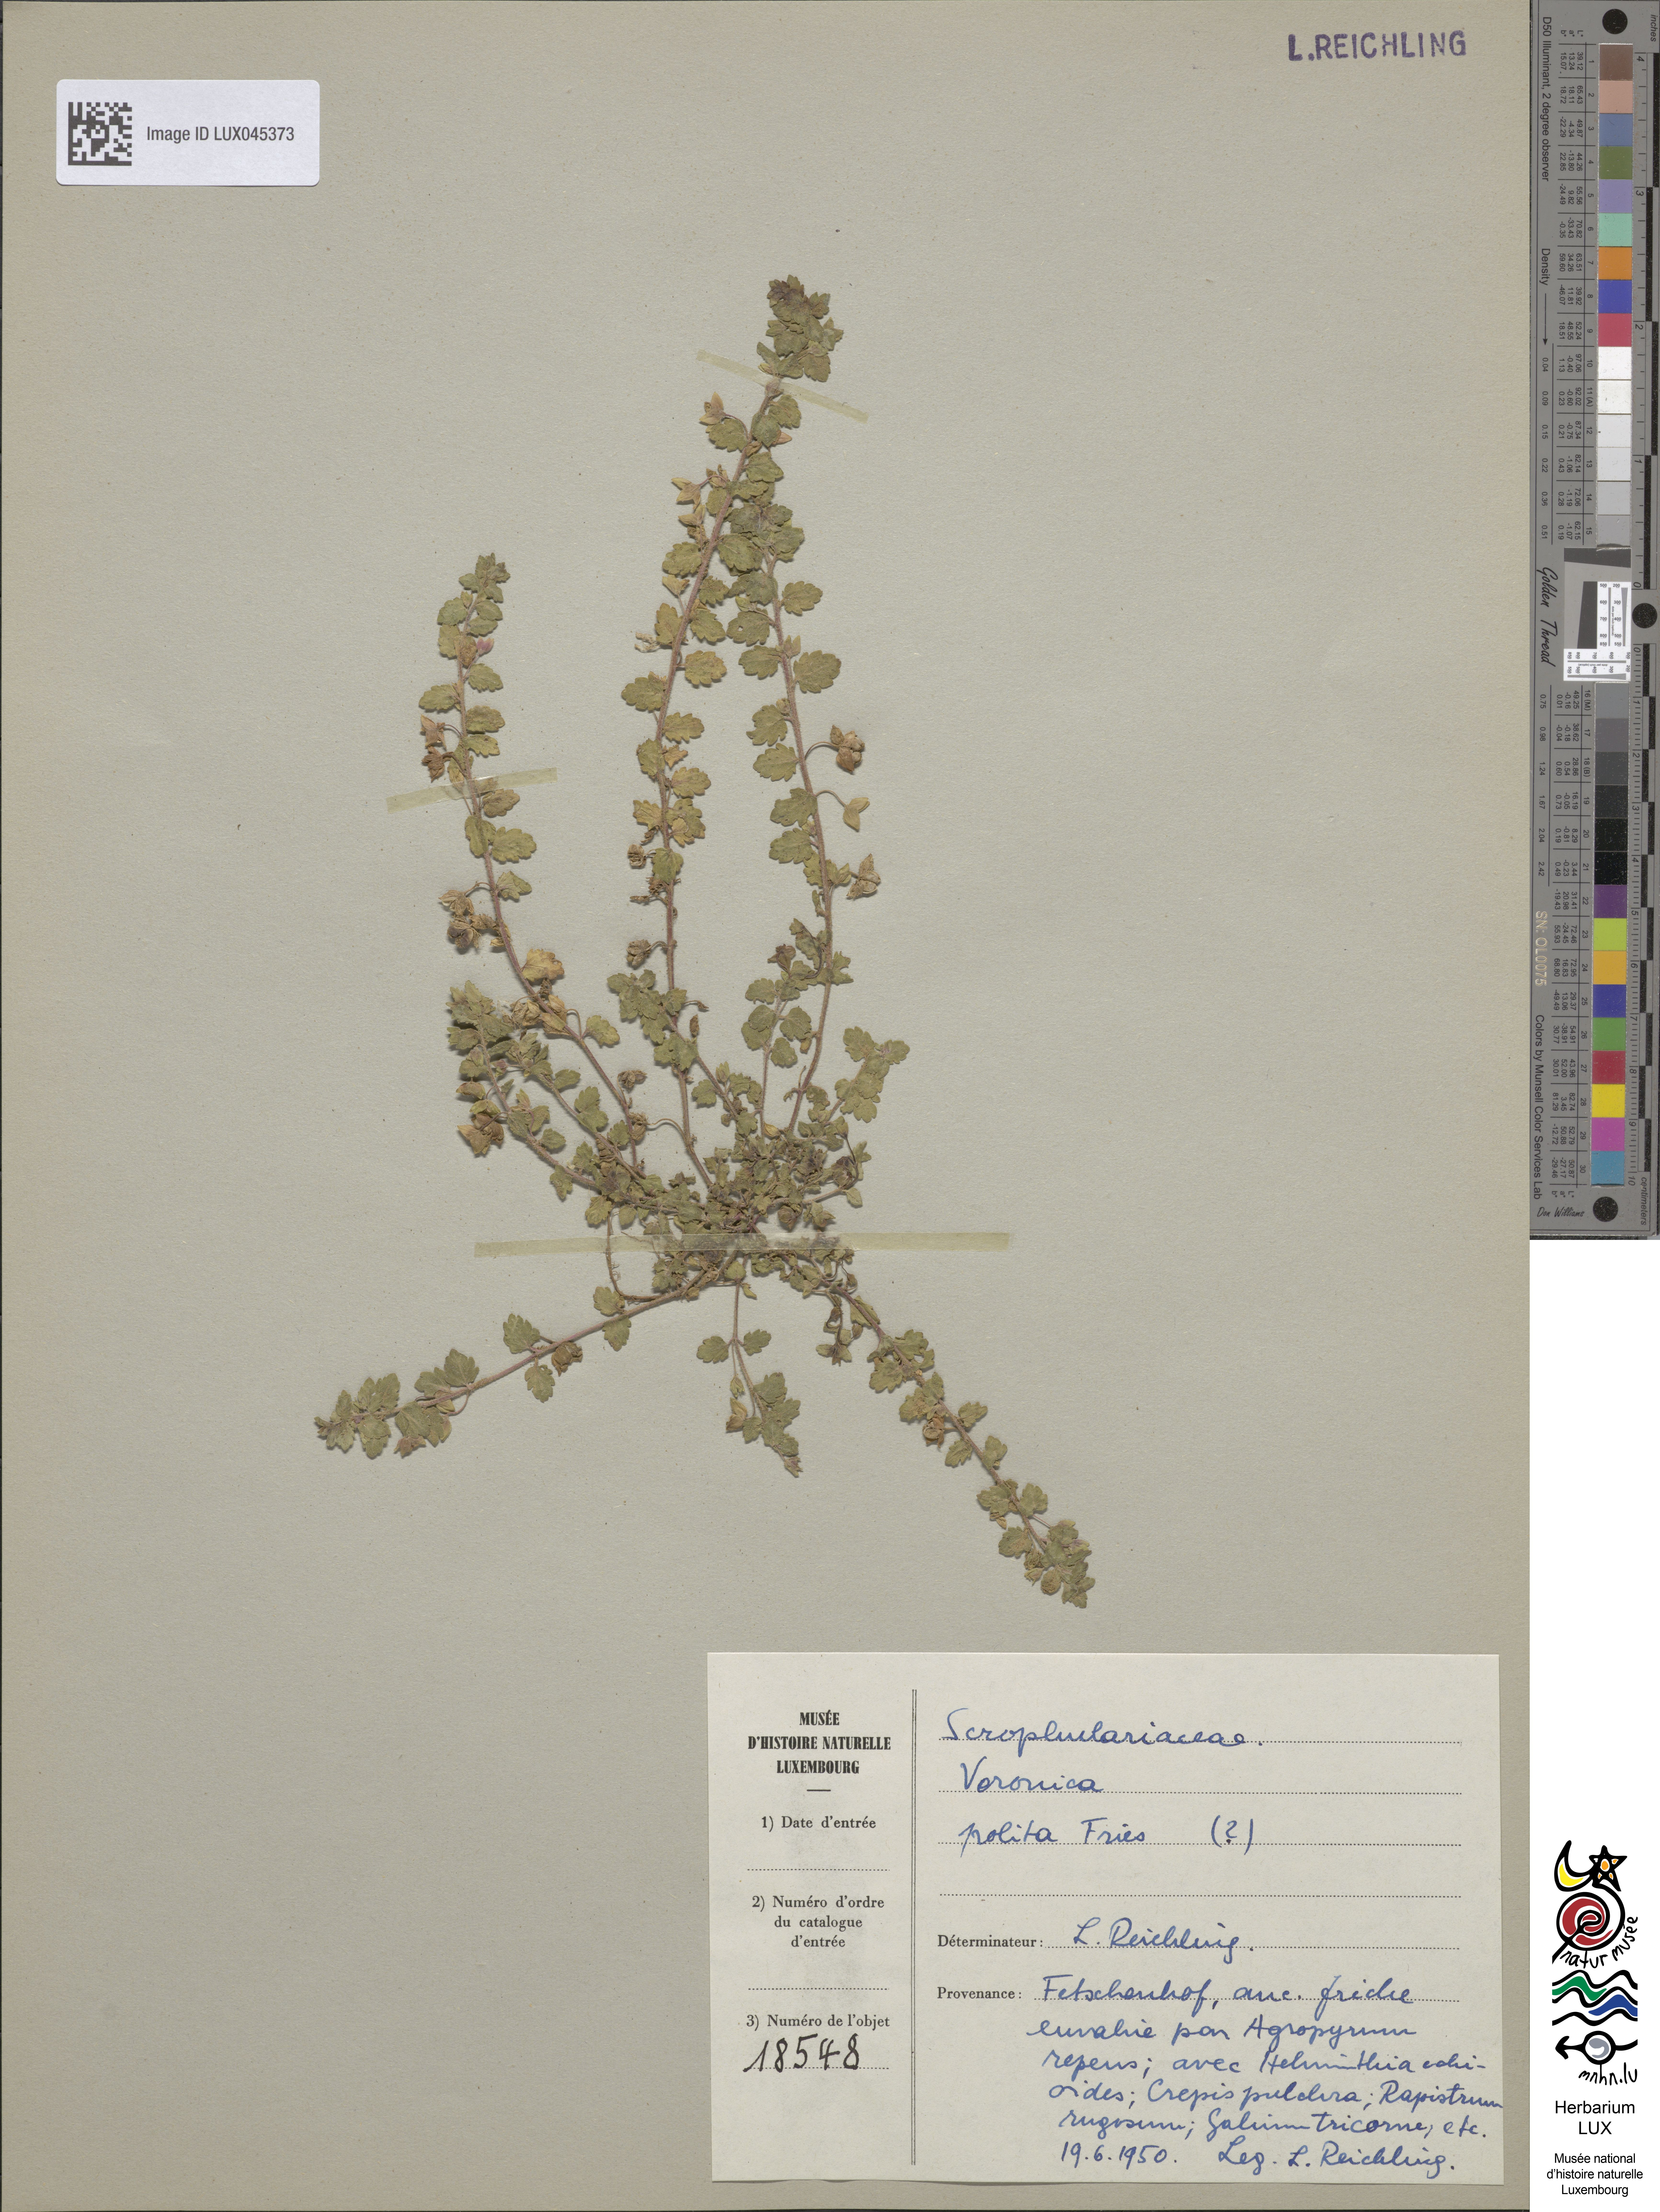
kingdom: Plantae
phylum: Tracheophyta
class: Magnoliopsida
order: Lamiales
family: Plantaginaceae
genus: Veronica
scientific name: Veronica polita
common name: Grey field-speedwell
